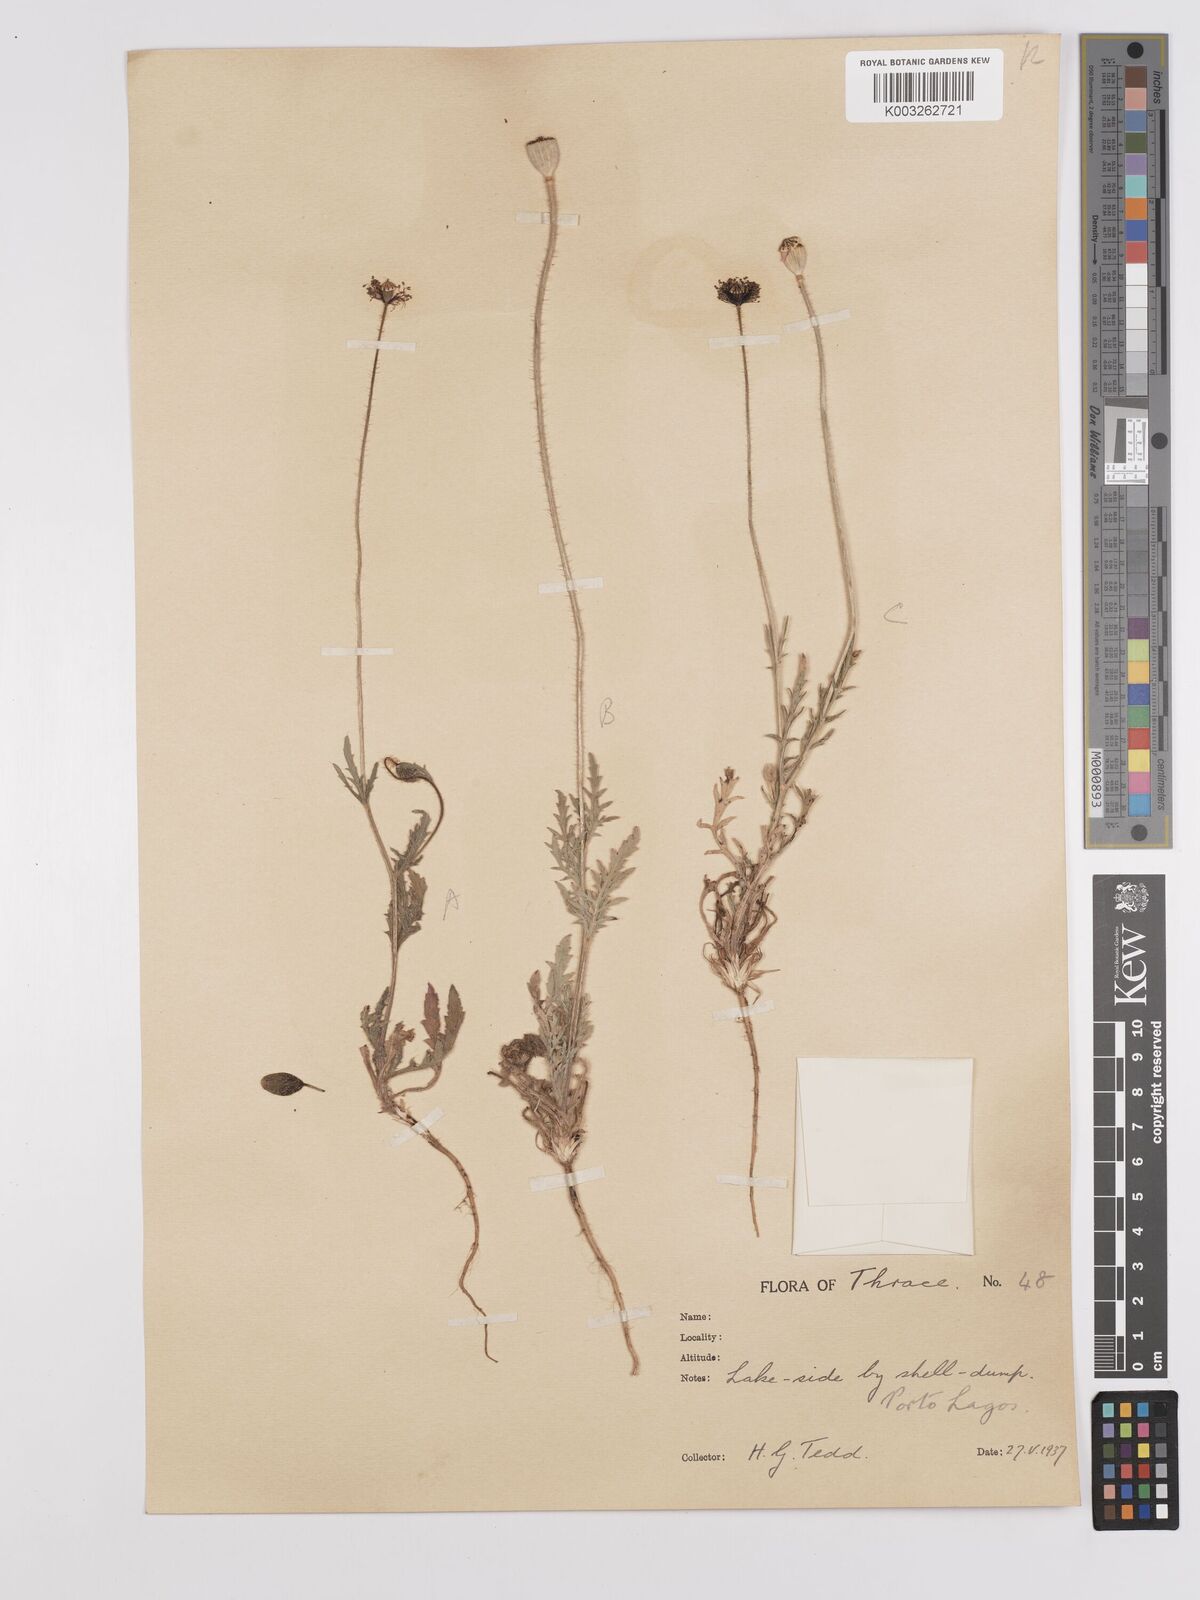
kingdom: Plantae
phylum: Tracheophyta
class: Magnoliopsida
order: Ranunculales
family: Papaveraceae
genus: Papaver
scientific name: Papaver
